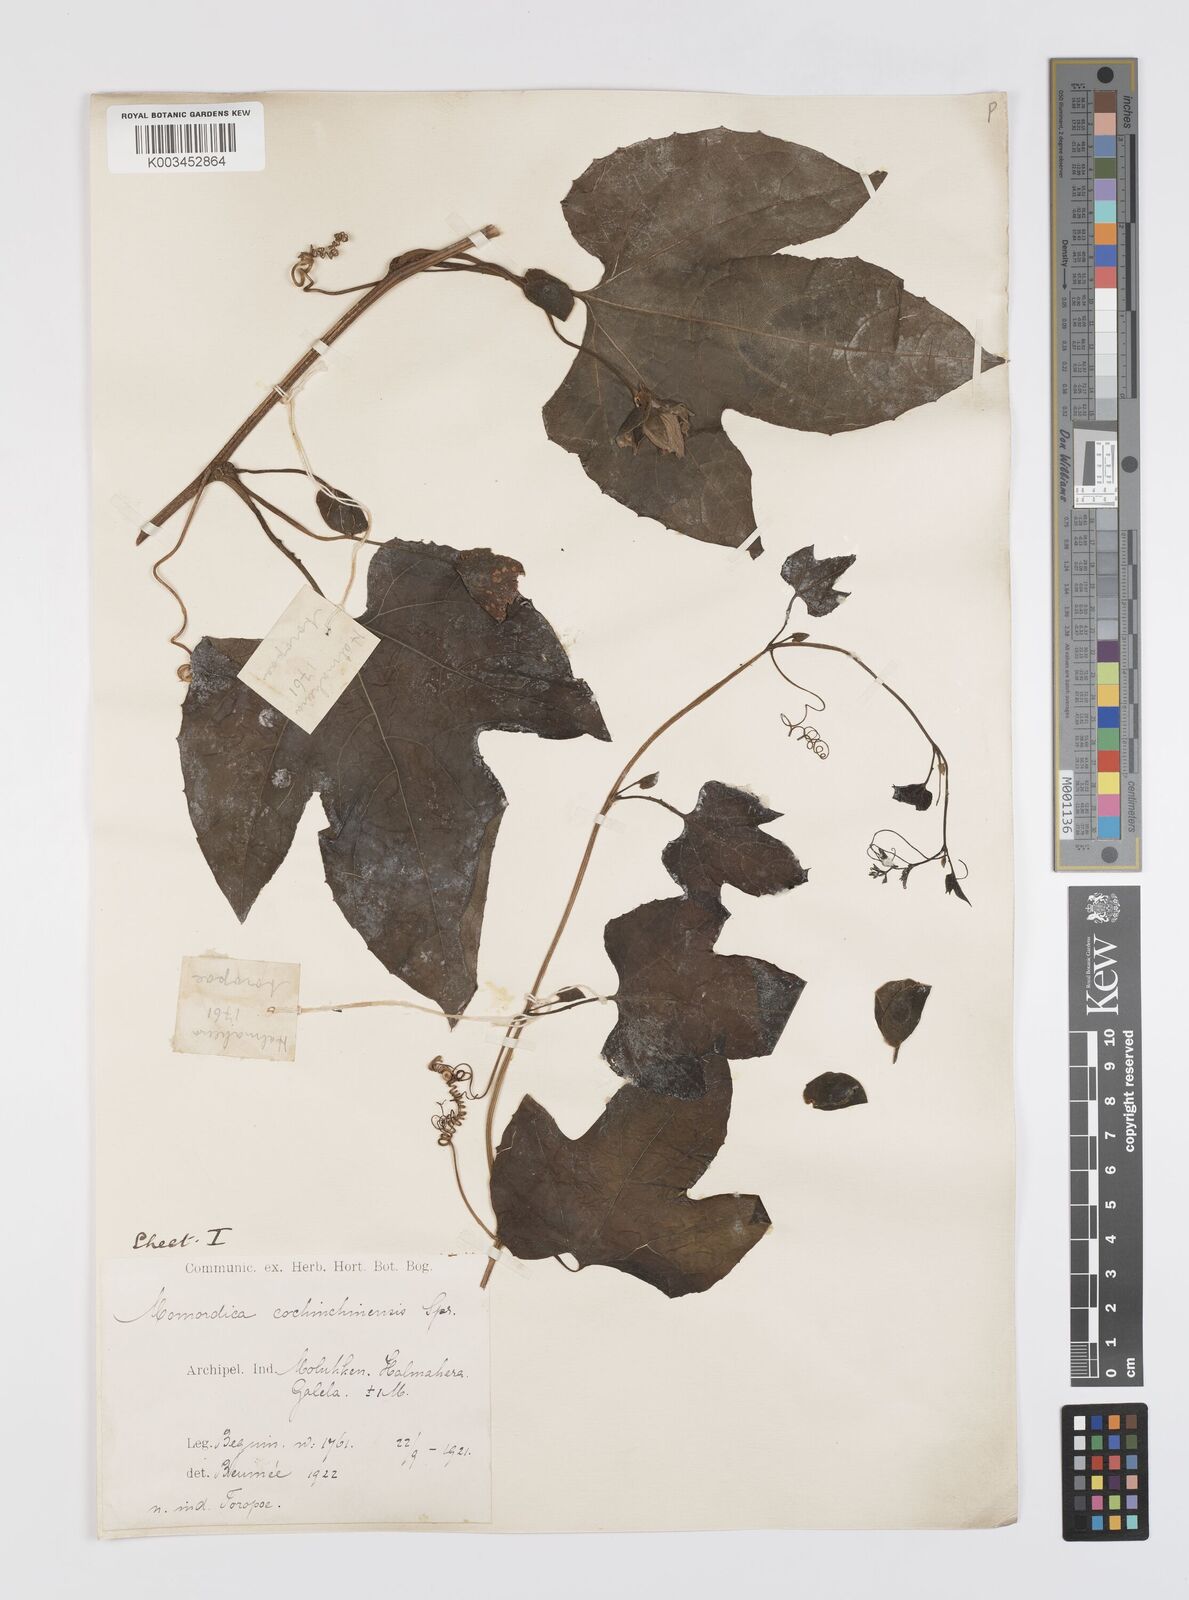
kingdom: Plantae
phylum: Tracheophyta
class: Magnoliopsida
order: Cucurbitales
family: Cucurbitaceae
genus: Momordica
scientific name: Momordica cochinchinensis
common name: Chinese bitter-cucumber
